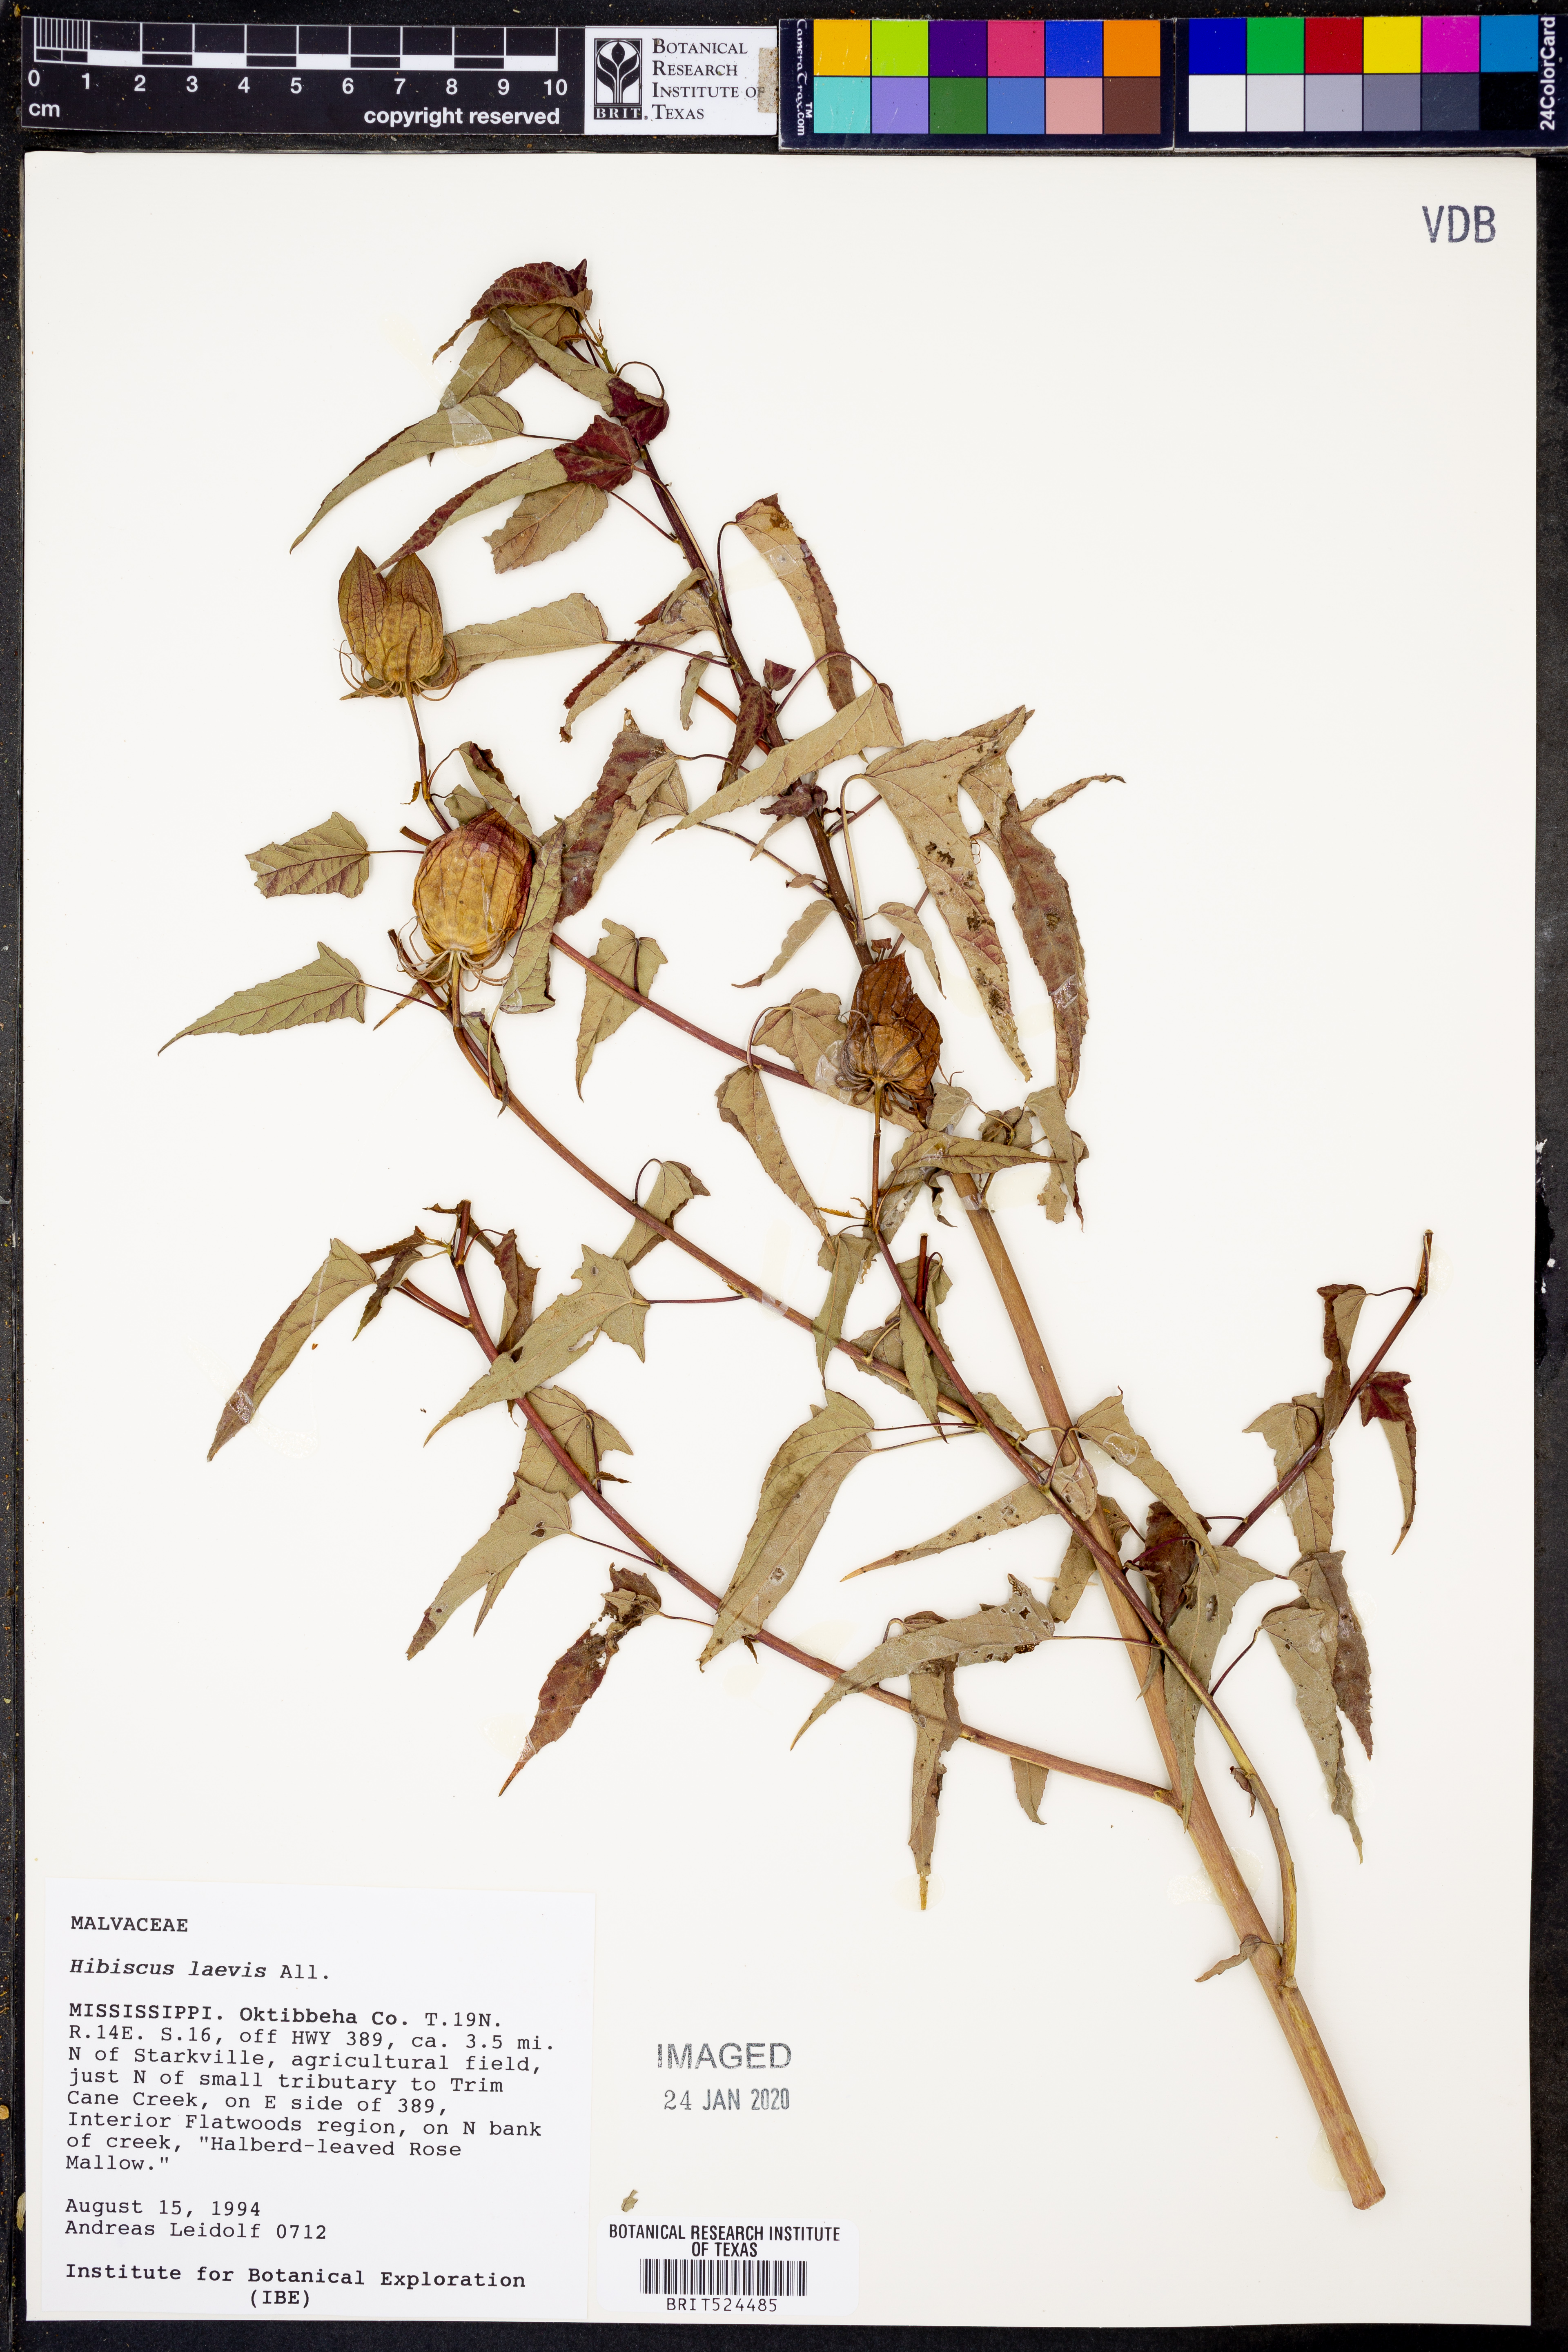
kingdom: Plantae
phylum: Tracheophyta
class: Magnoliopsida
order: Malvales
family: Malvaceae
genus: Hibiscus
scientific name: Hibiscus laevis
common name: Scarlet rose-mallow
